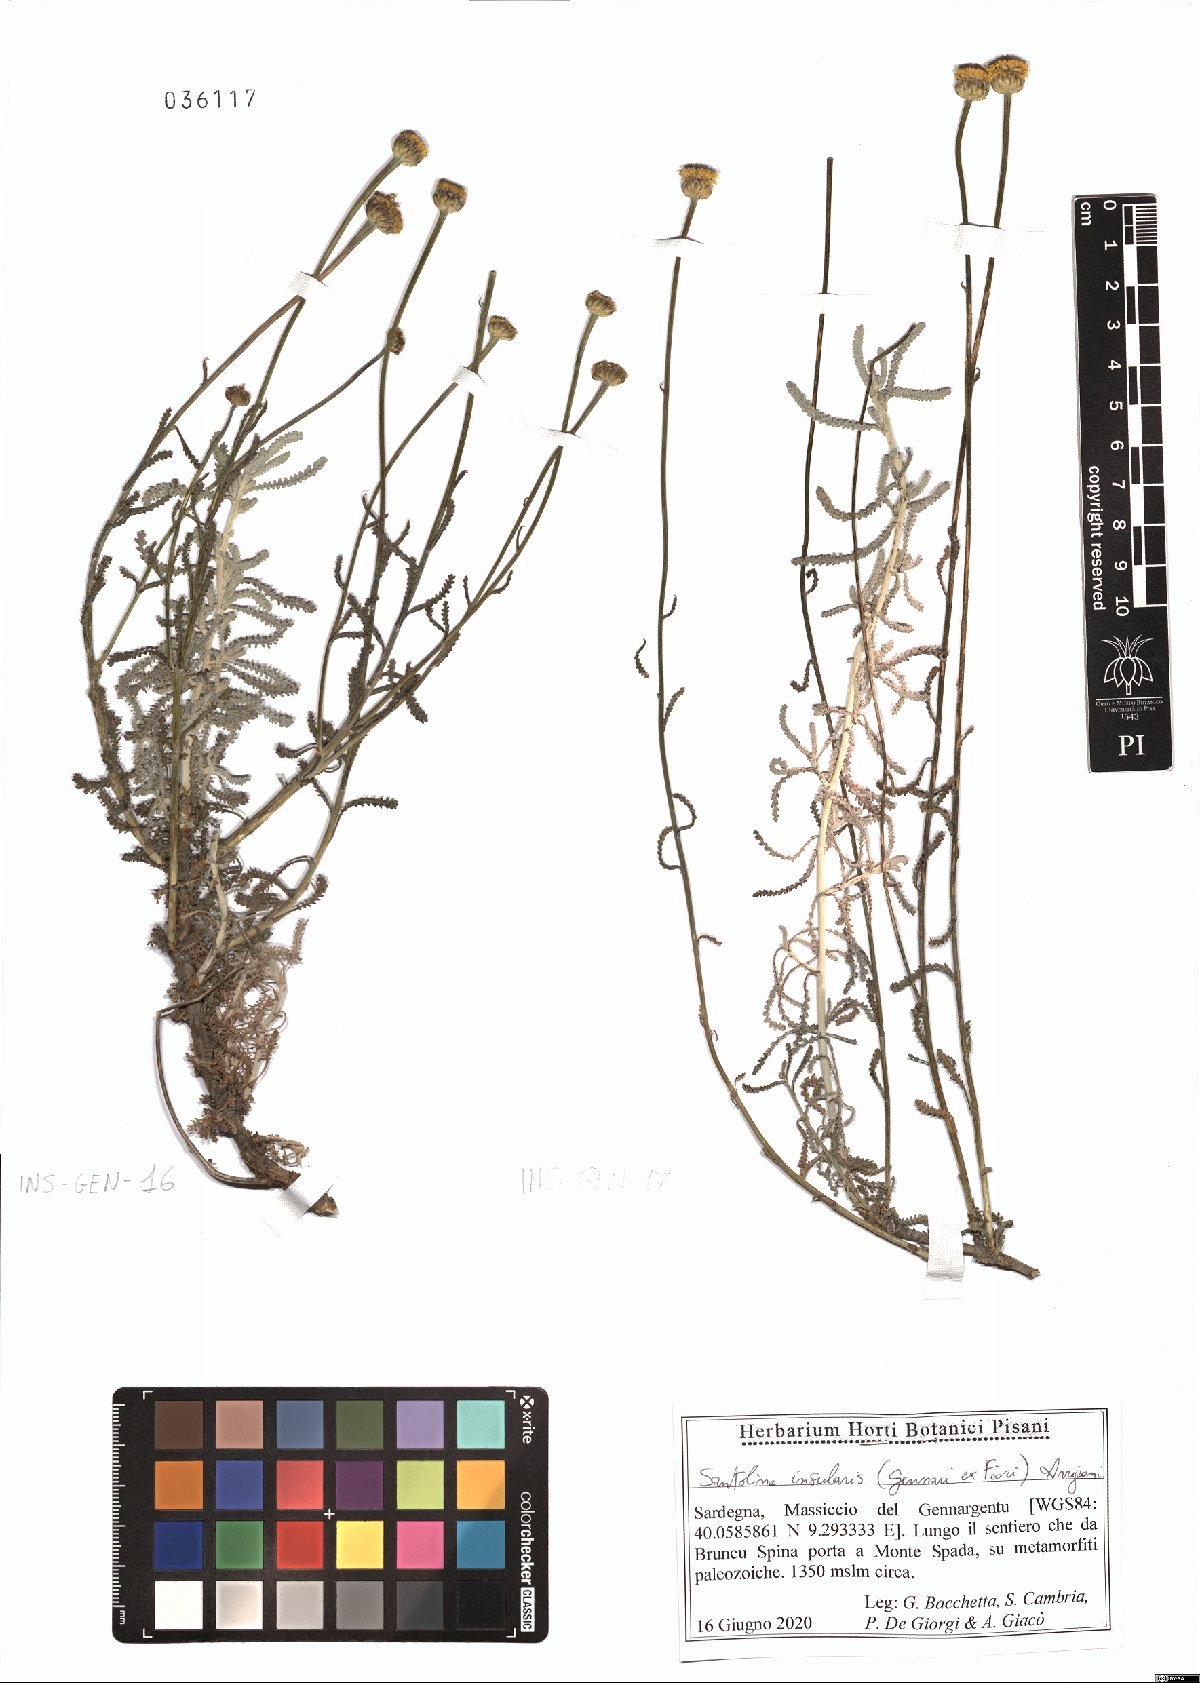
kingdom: Plantae
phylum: Tracheophyta
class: Magnoliopsida
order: Asterales
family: Asteraceae
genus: Santolina
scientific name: Santolina insularis
